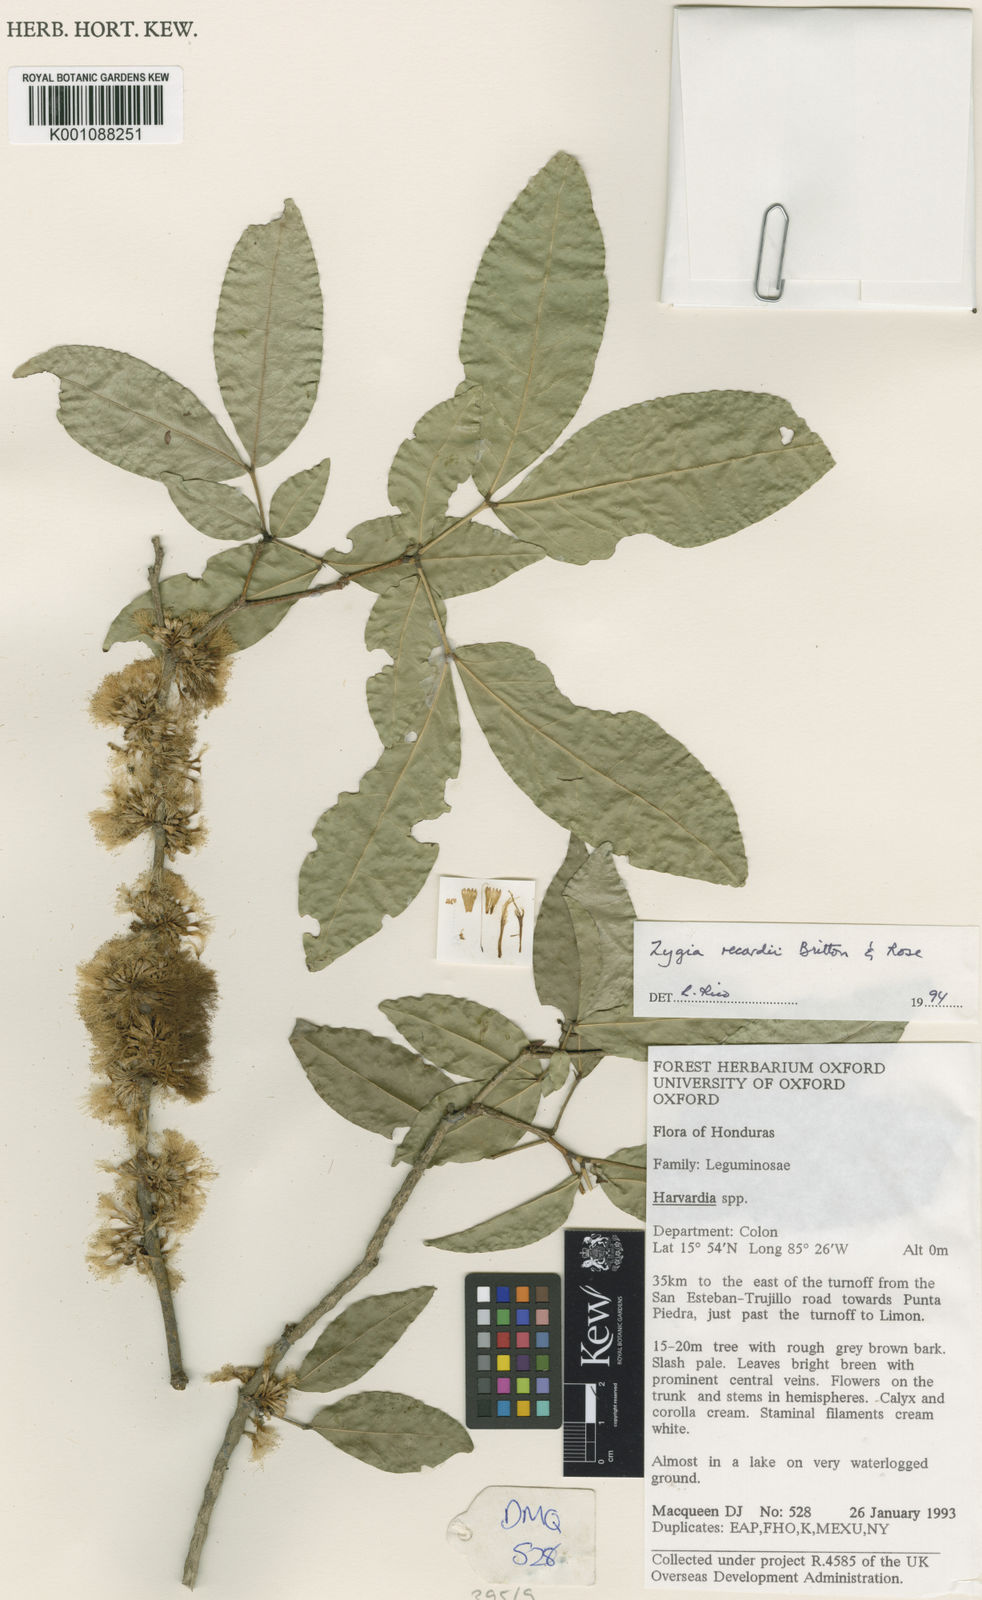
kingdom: Plantae
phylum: Tracheophyta
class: Magnoliopsida
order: Fabales
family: Fabaceae
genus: Zygia
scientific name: Zygia conzattii
